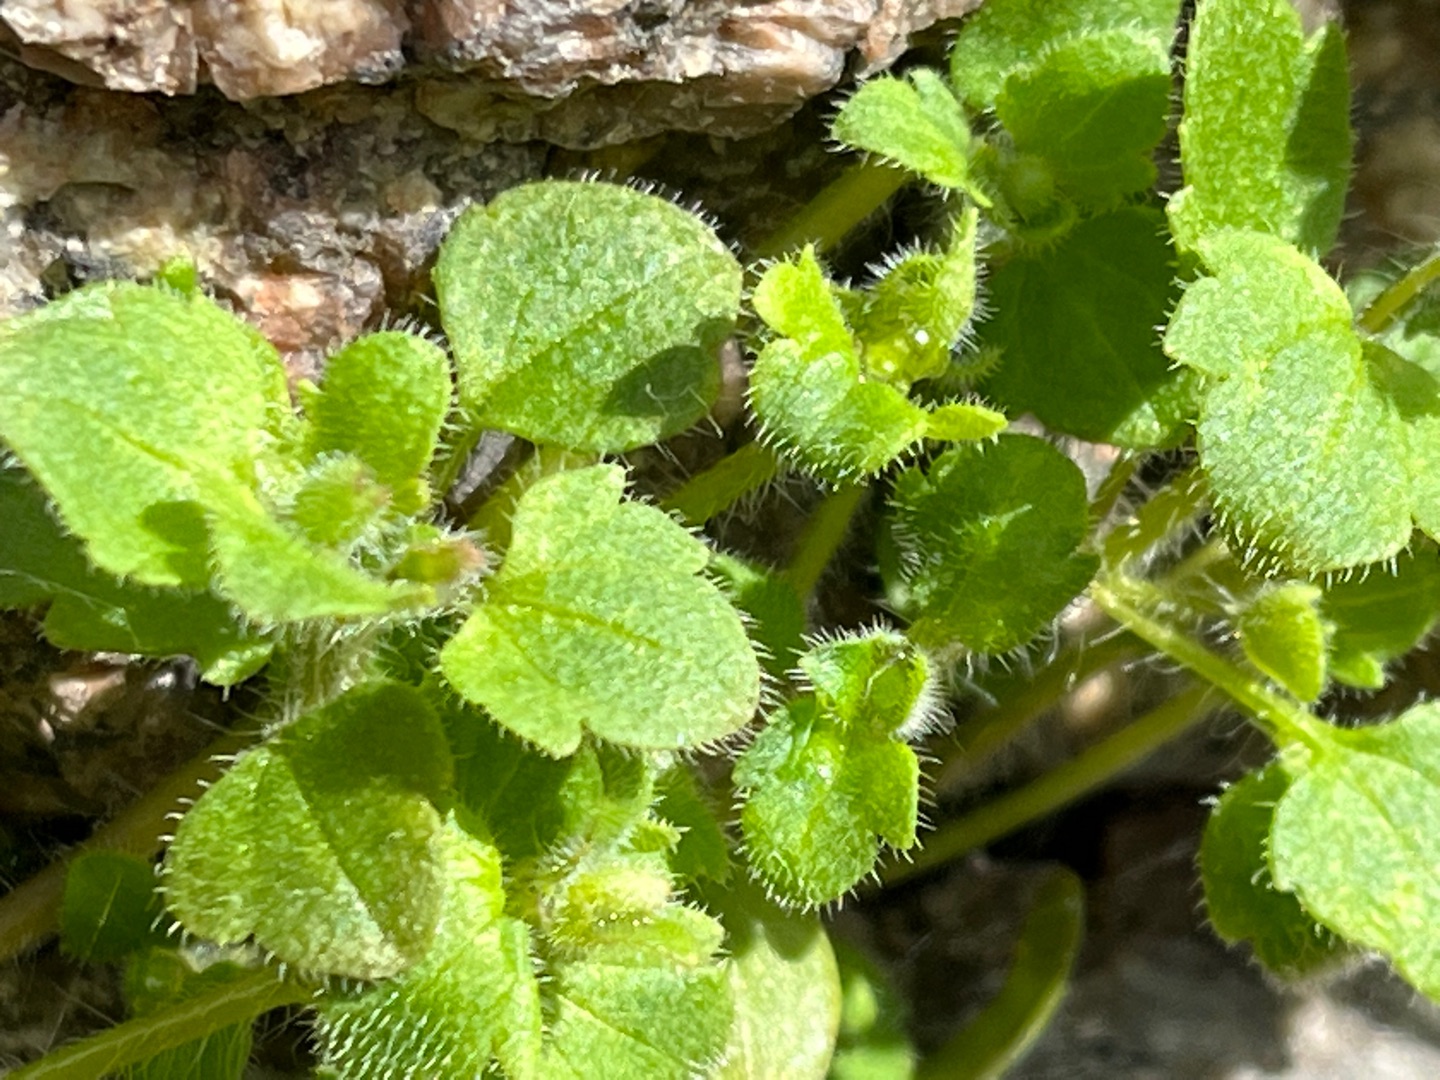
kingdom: Plantae
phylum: Tracheophyta
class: Magnoliopsida
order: Lamiales
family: Plantaginaceae
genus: Veronica
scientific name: Veronica sublobata
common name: Krat-ærenpris
